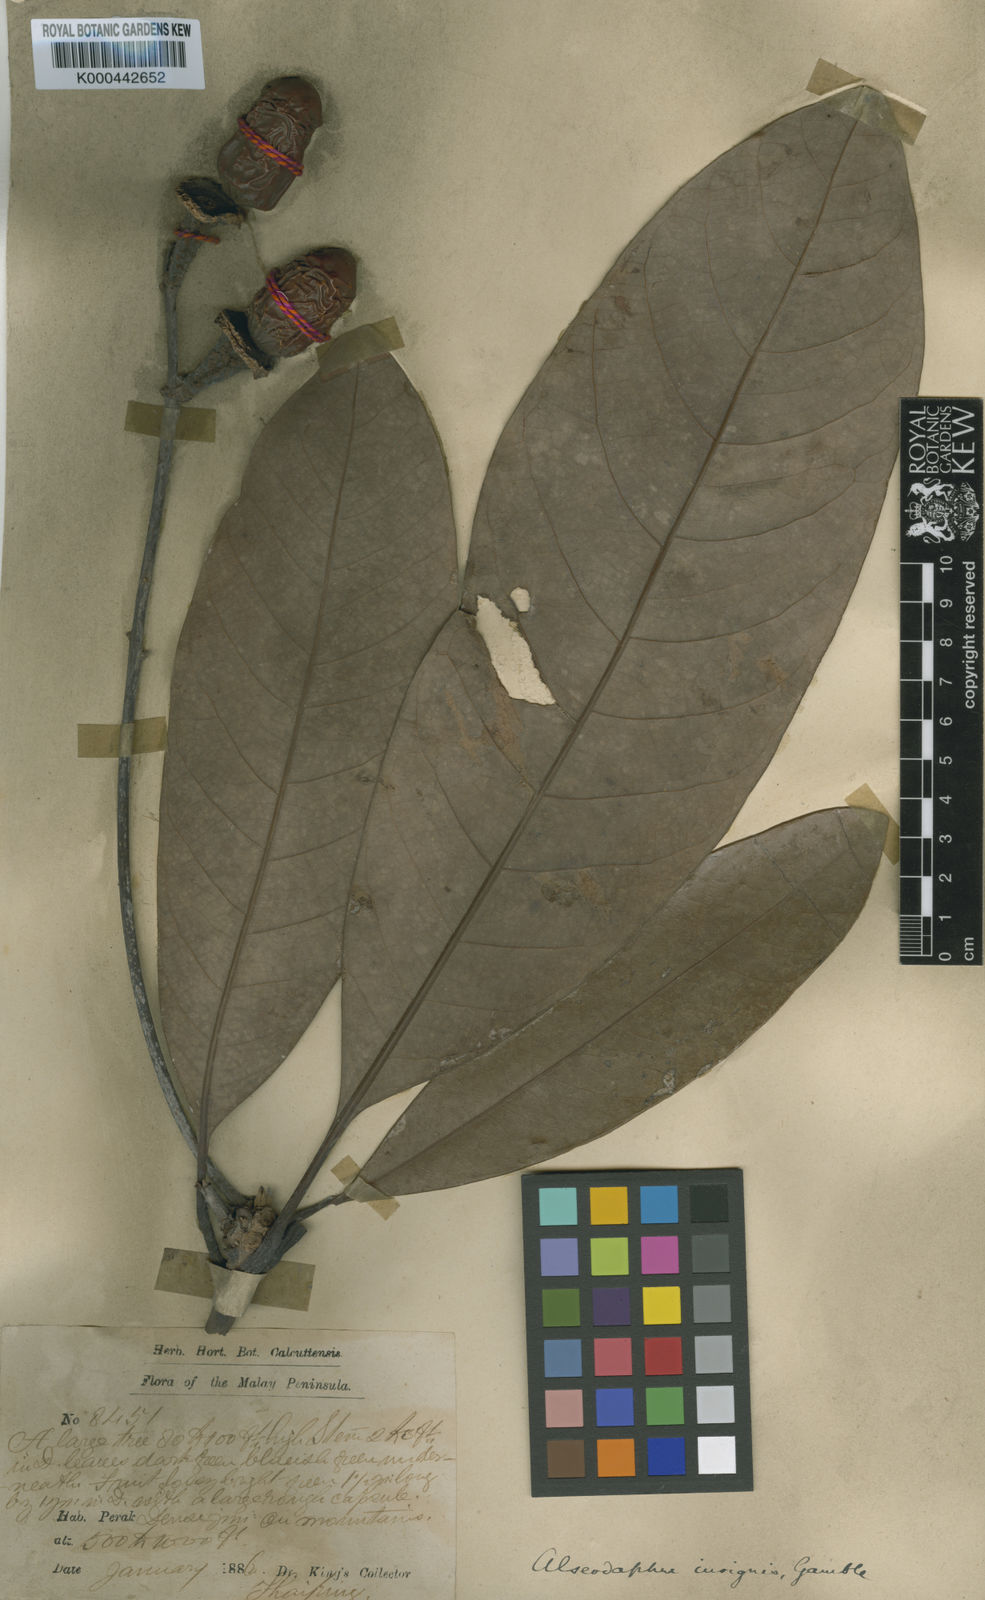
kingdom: Plantae
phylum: Tracheophyta
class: Magnoliopsida
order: Laurales
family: Lauraceae
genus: Alseodaphne
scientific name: Alseodaphne insignis
